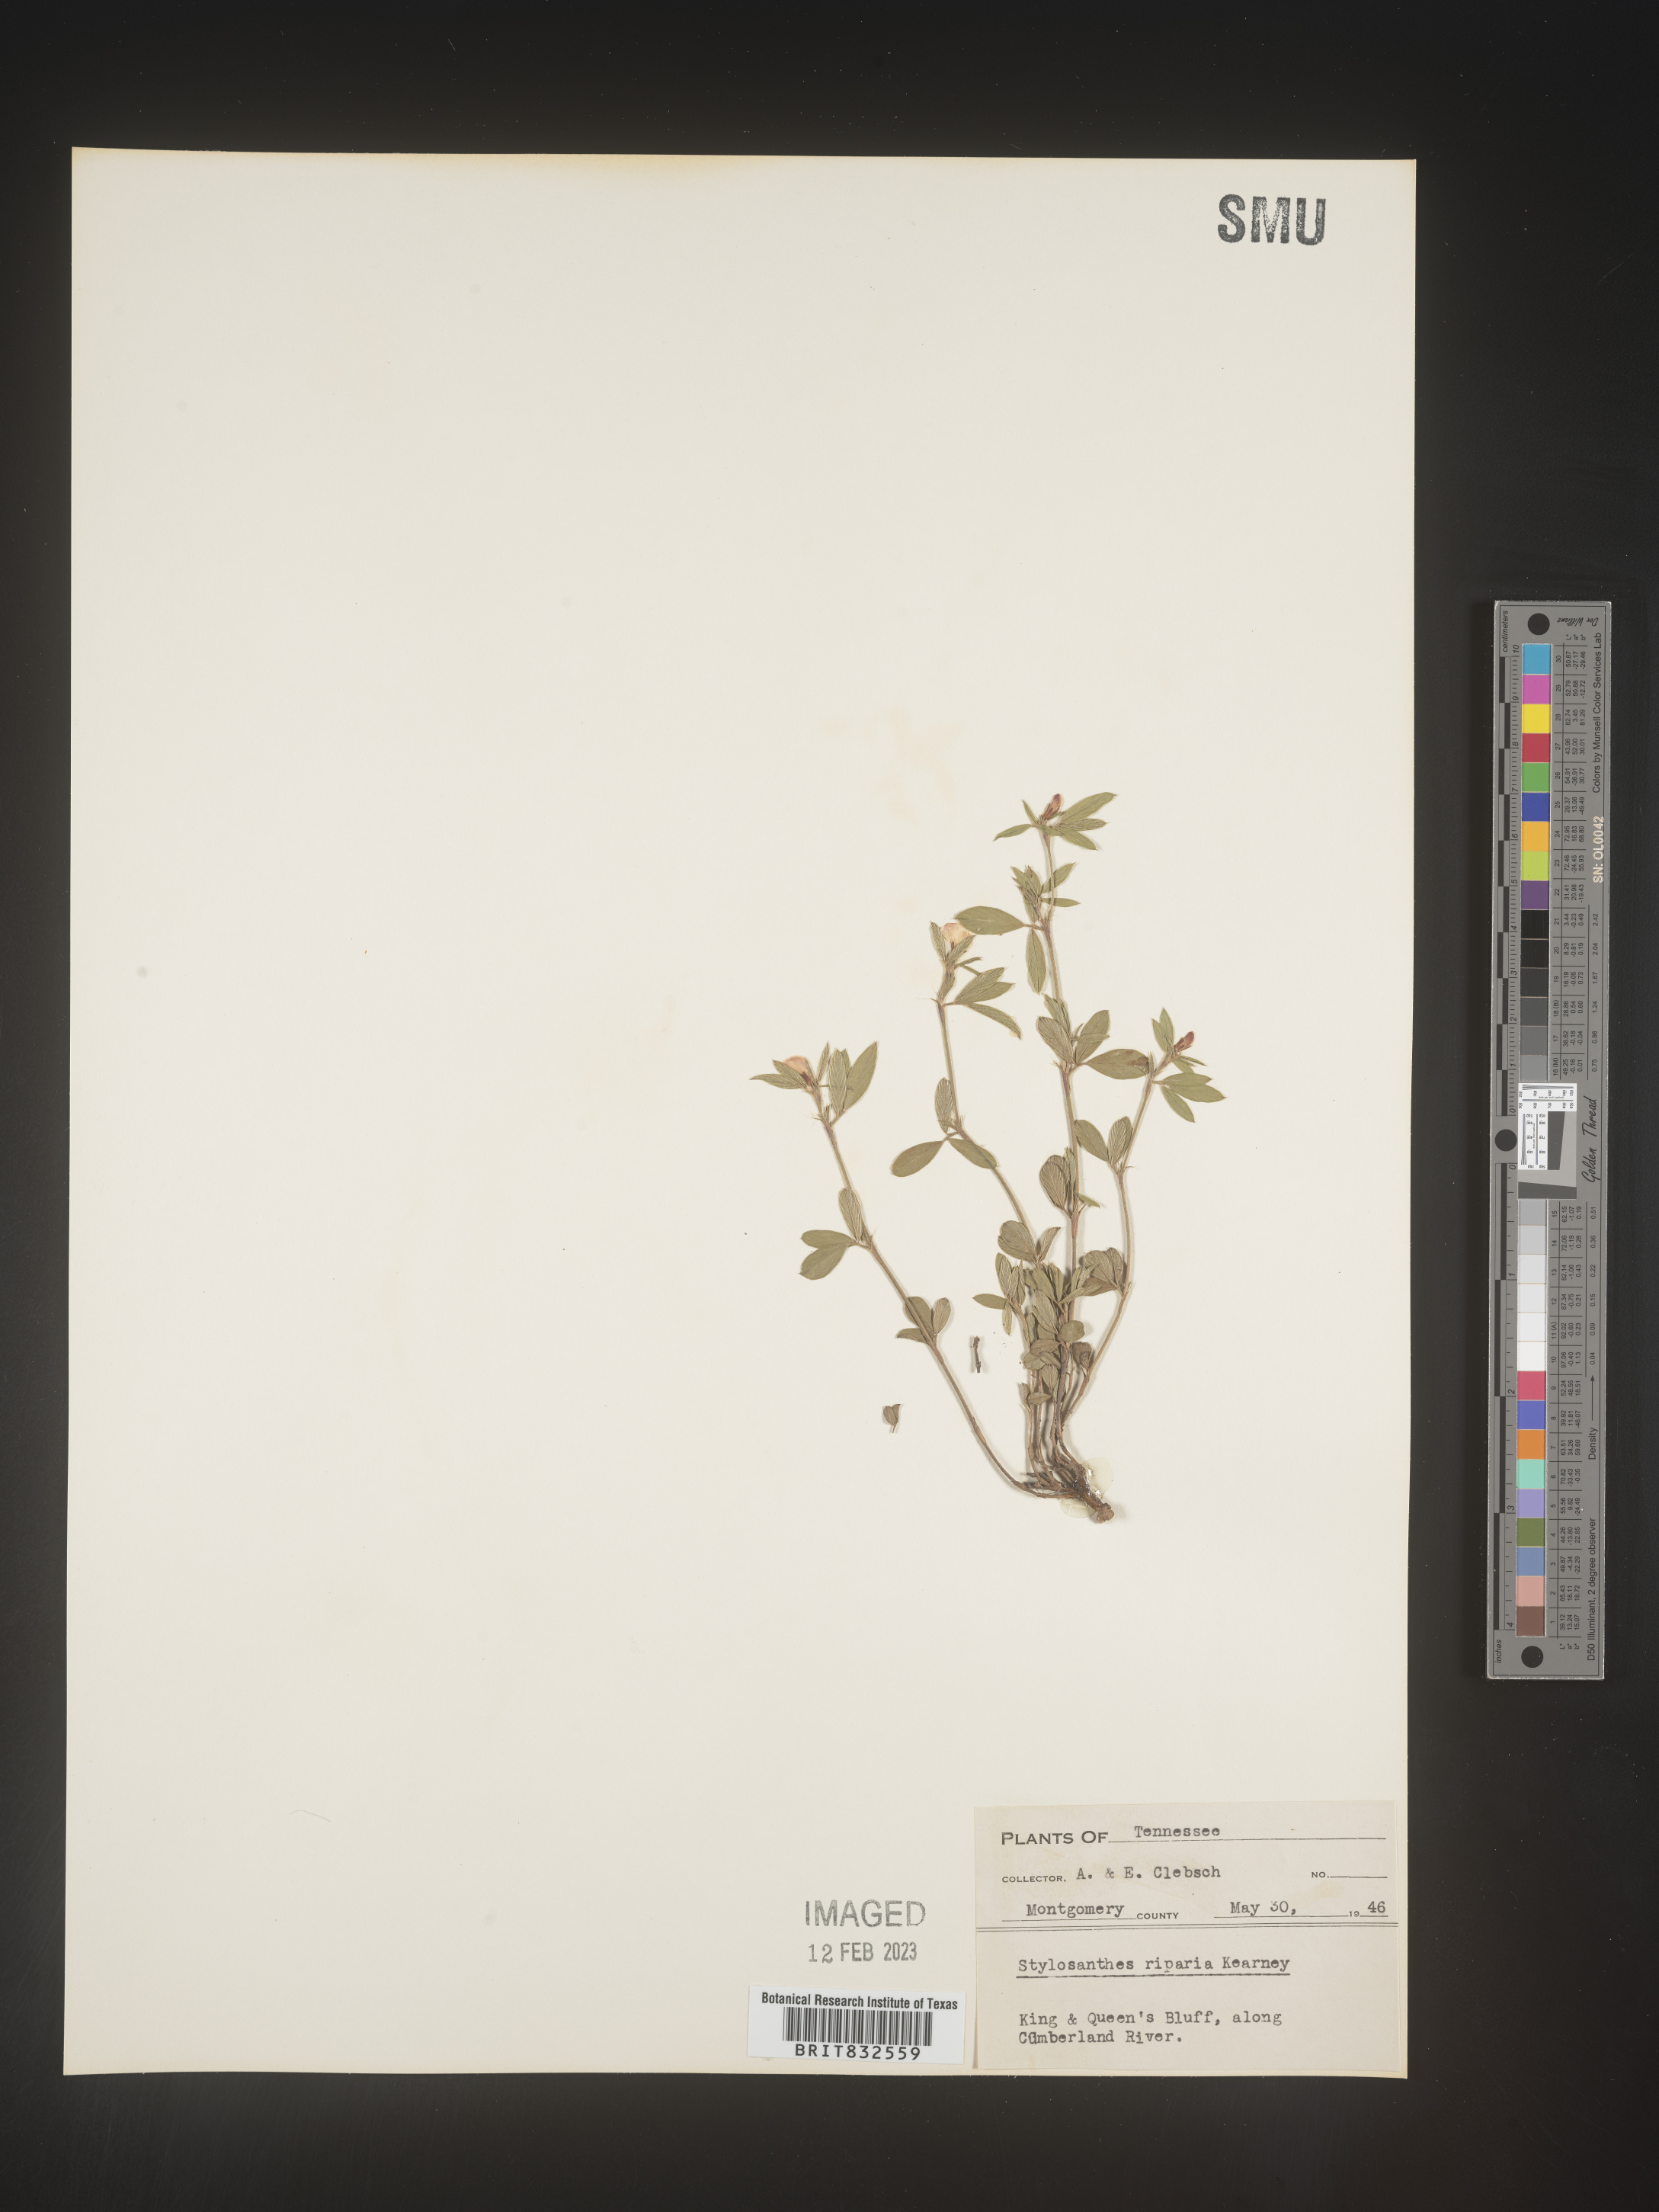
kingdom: Plantae
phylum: Tracheophyta
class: Magnoliopsida
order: Fabales
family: Fabaceae
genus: Stylosanthes
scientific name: Stylosanthes
